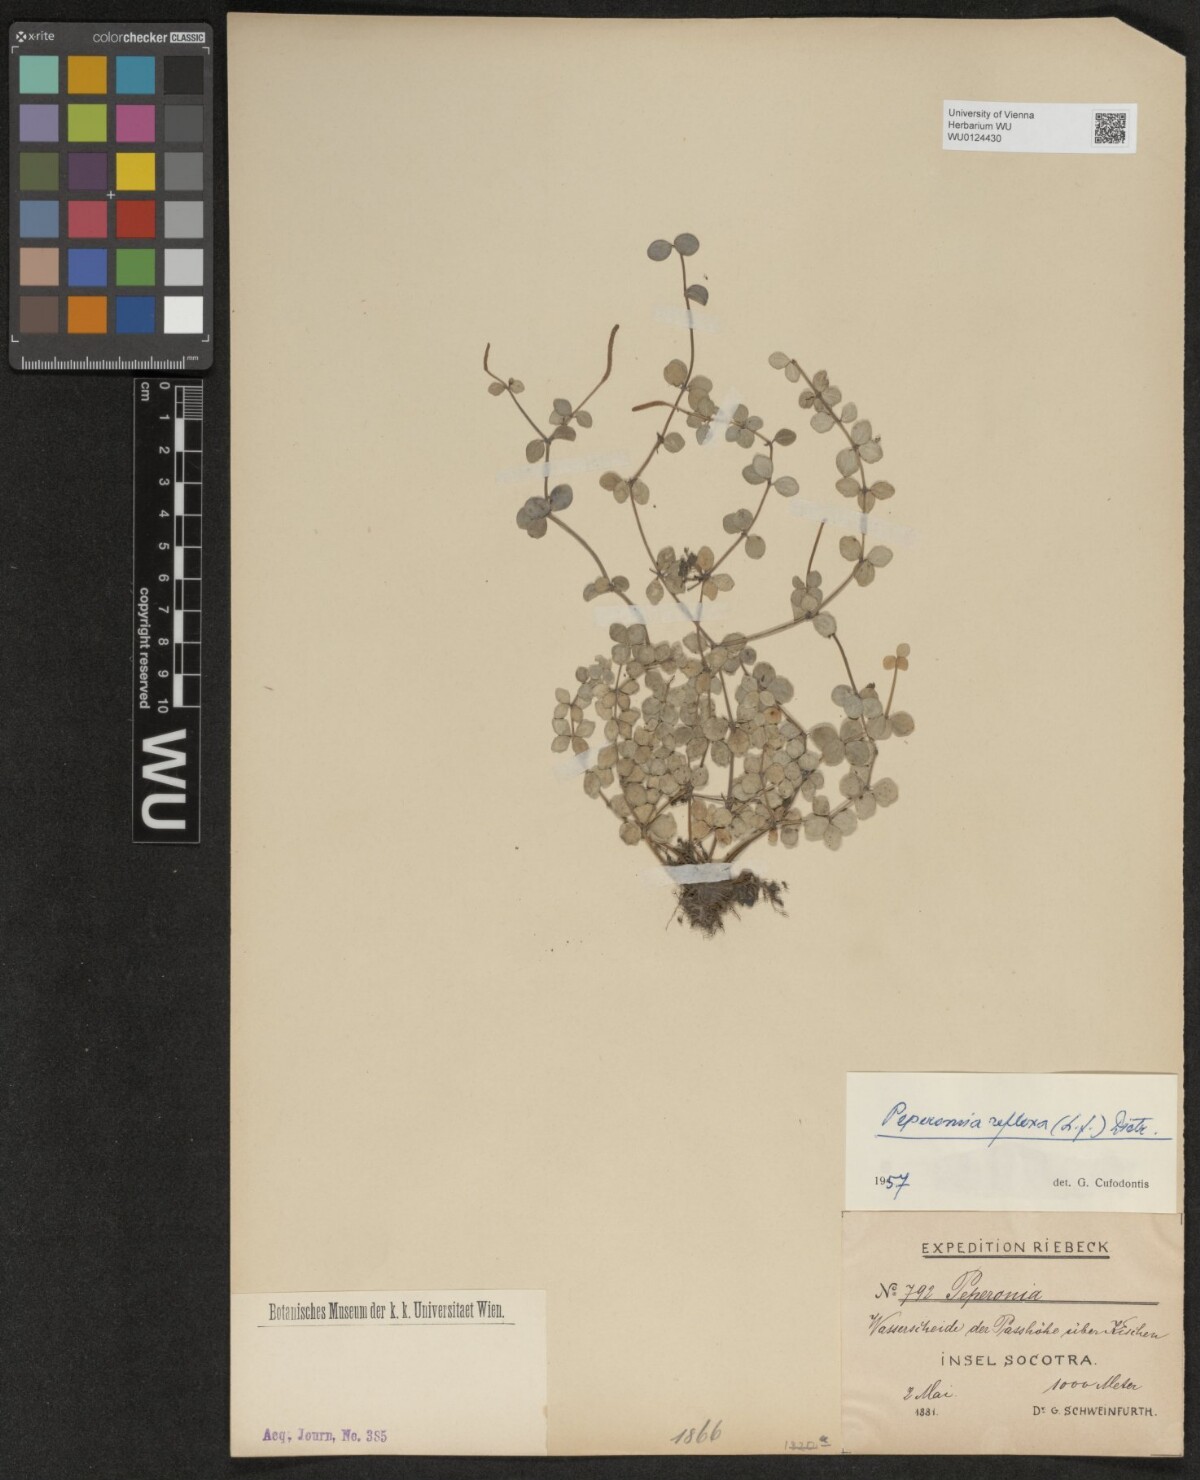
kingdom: Plantae
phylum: Tracheophyta
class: Magnoliopsida
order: Piperales
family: Piperaceae
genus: Peperomia
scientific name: Peperomia tetraphylla
